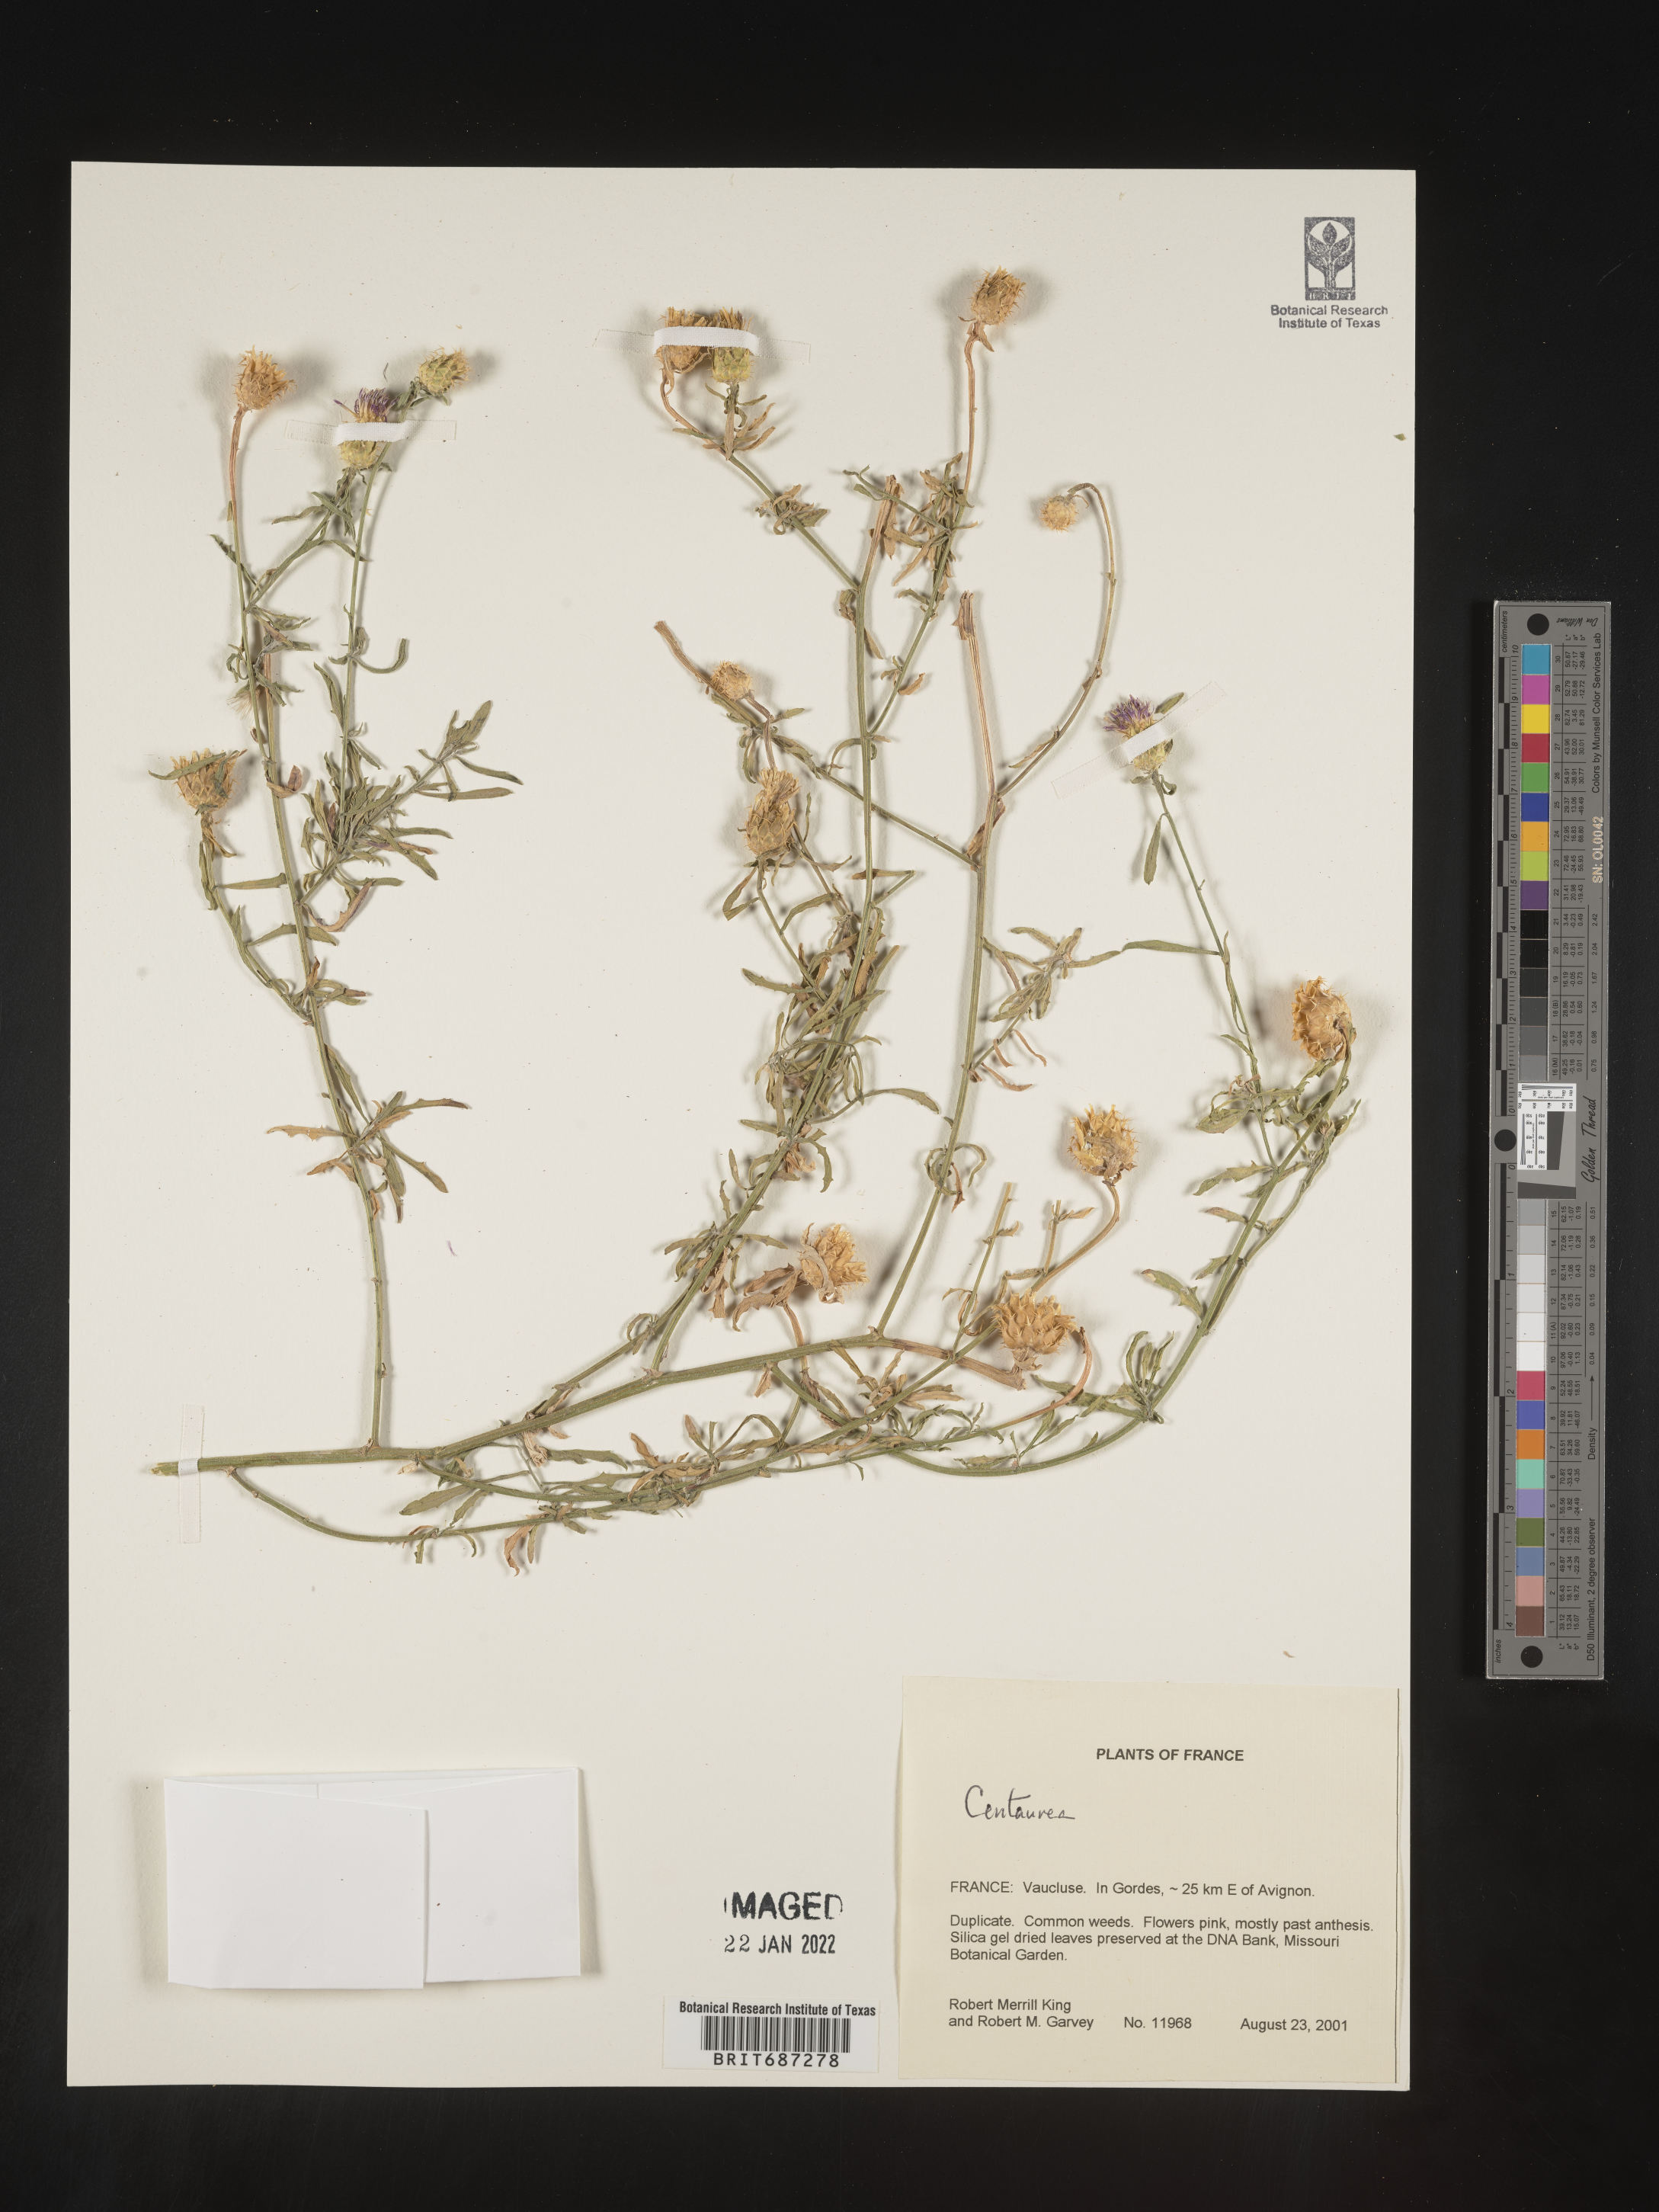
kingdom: Plantae
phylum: Tracheophyta
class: Magnoliopsida
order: Asterales
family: Asteraceae
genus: Centaurea
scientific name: Centaurea
